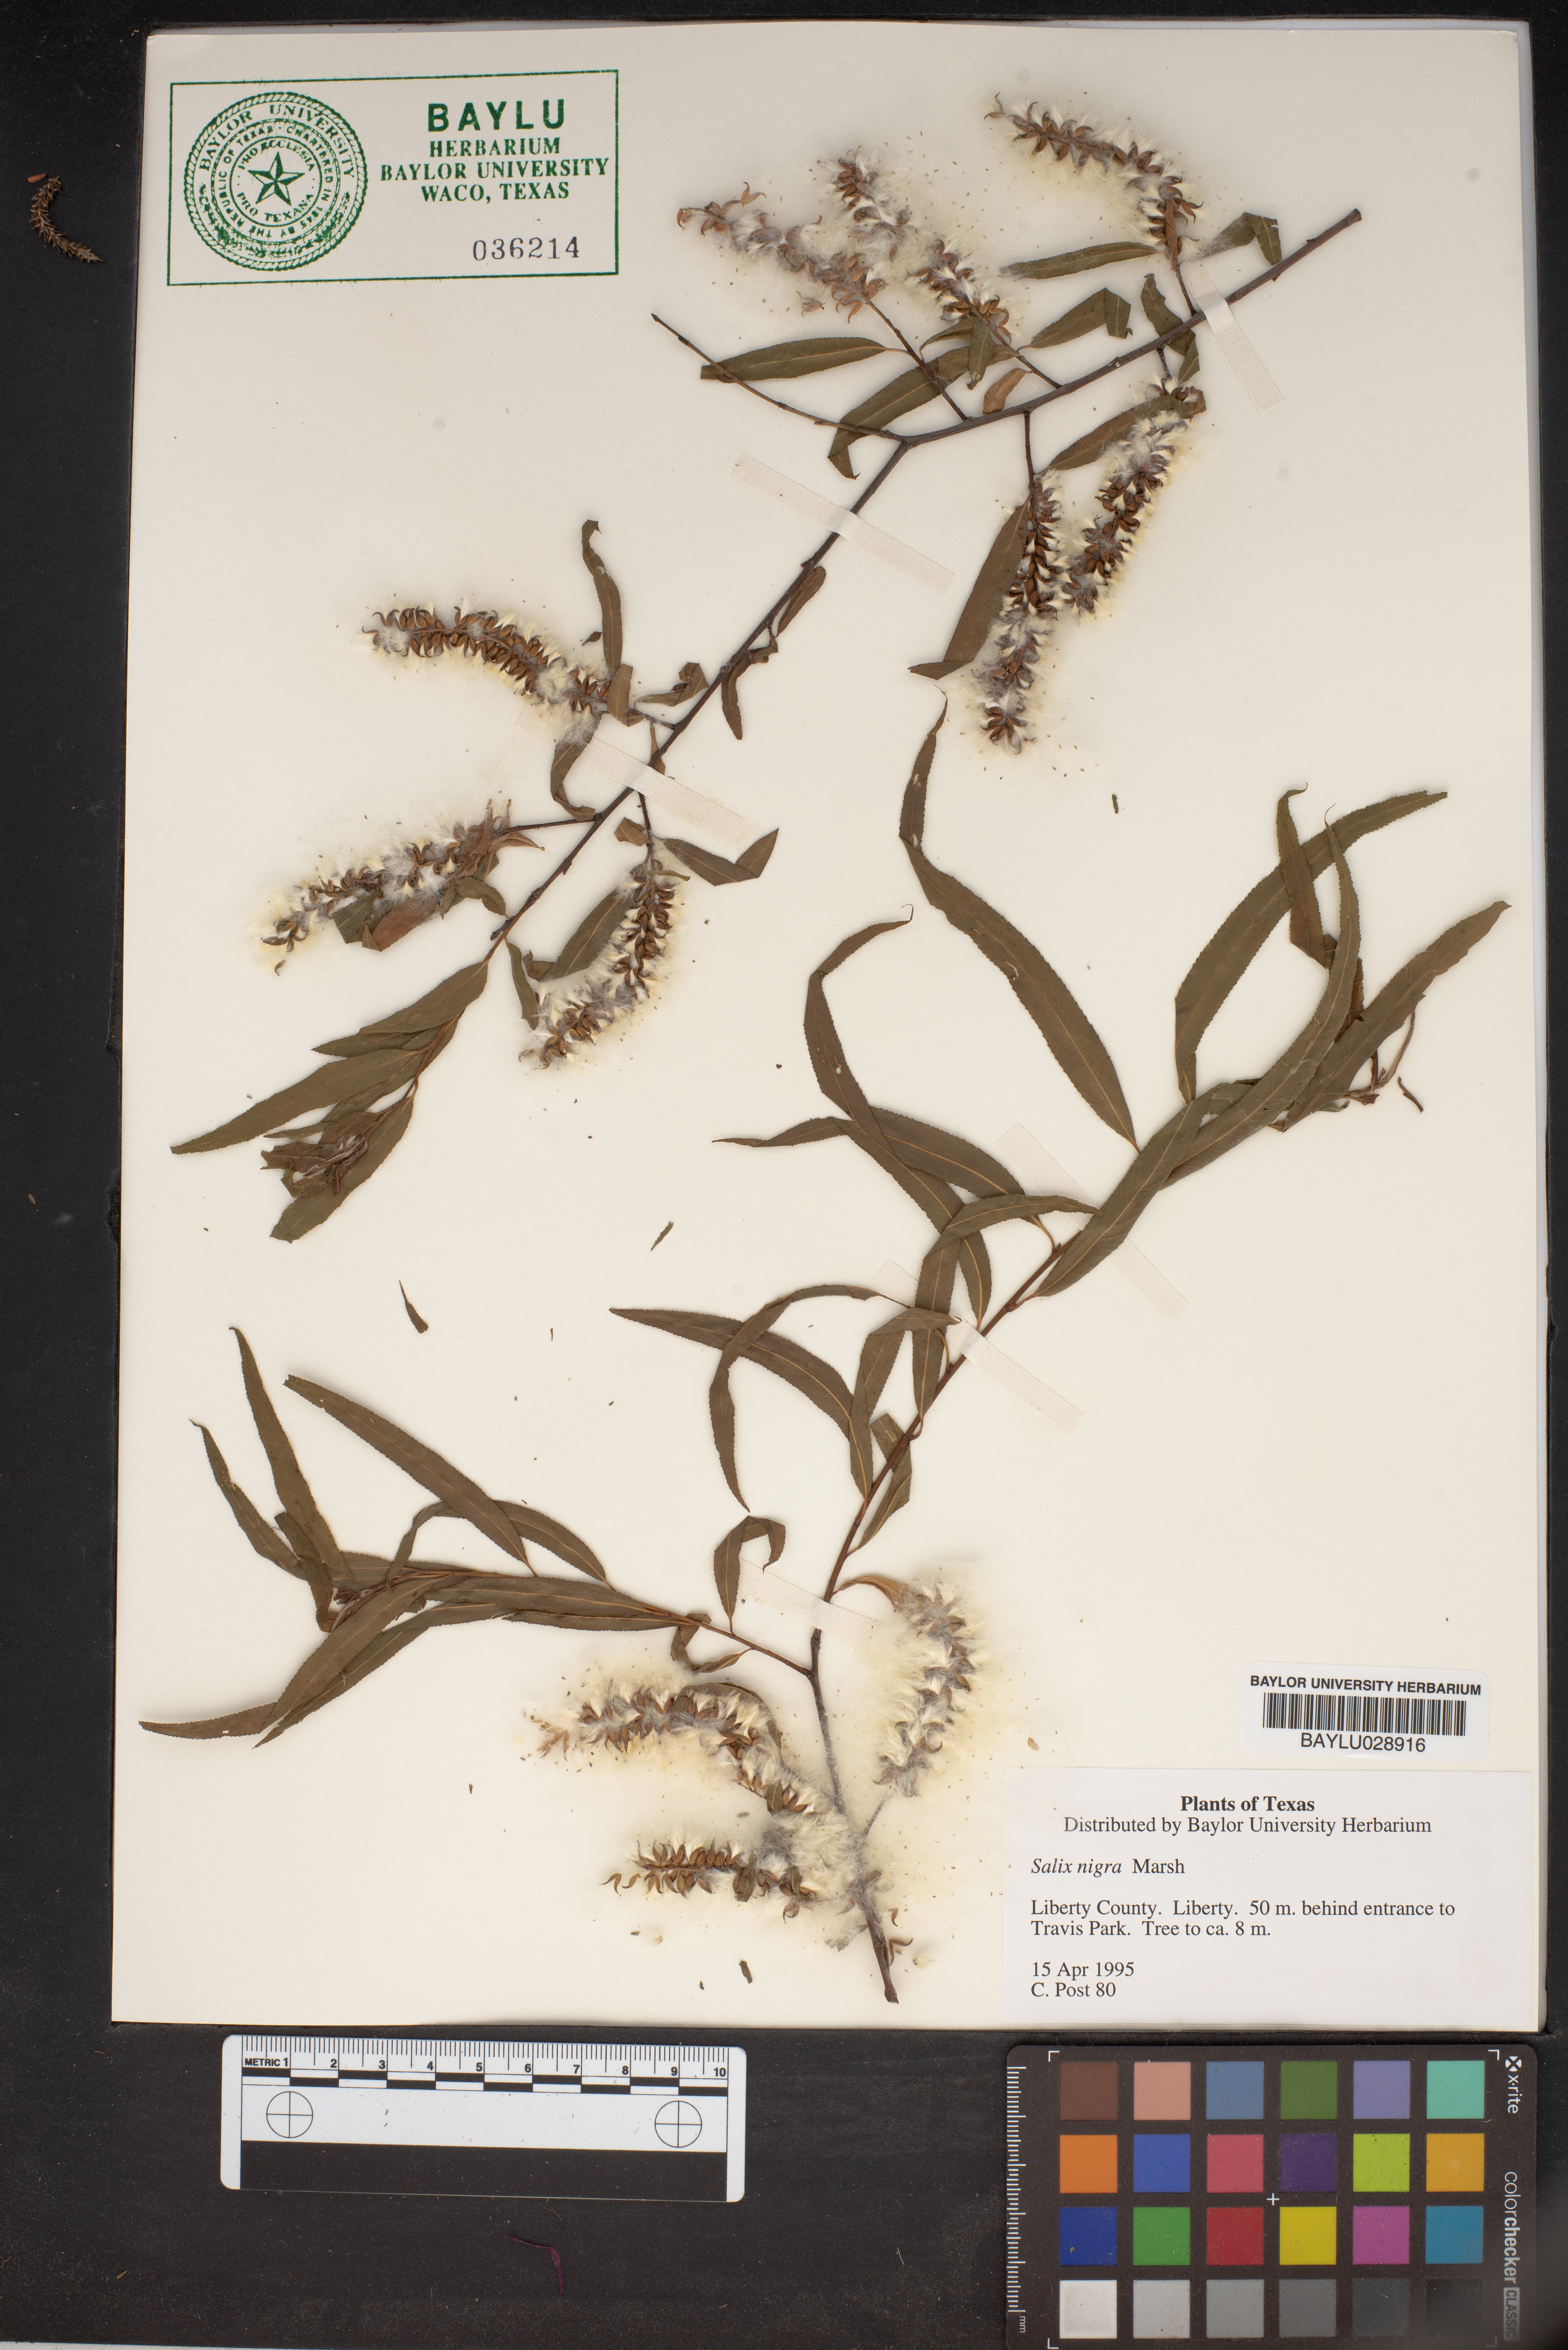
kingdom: Plantae
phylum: Tracheophyta
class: Magnoliopsida
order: Malpighiales
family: Salicaceae
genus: Salix
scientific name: Salix nigra
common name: Black willow
